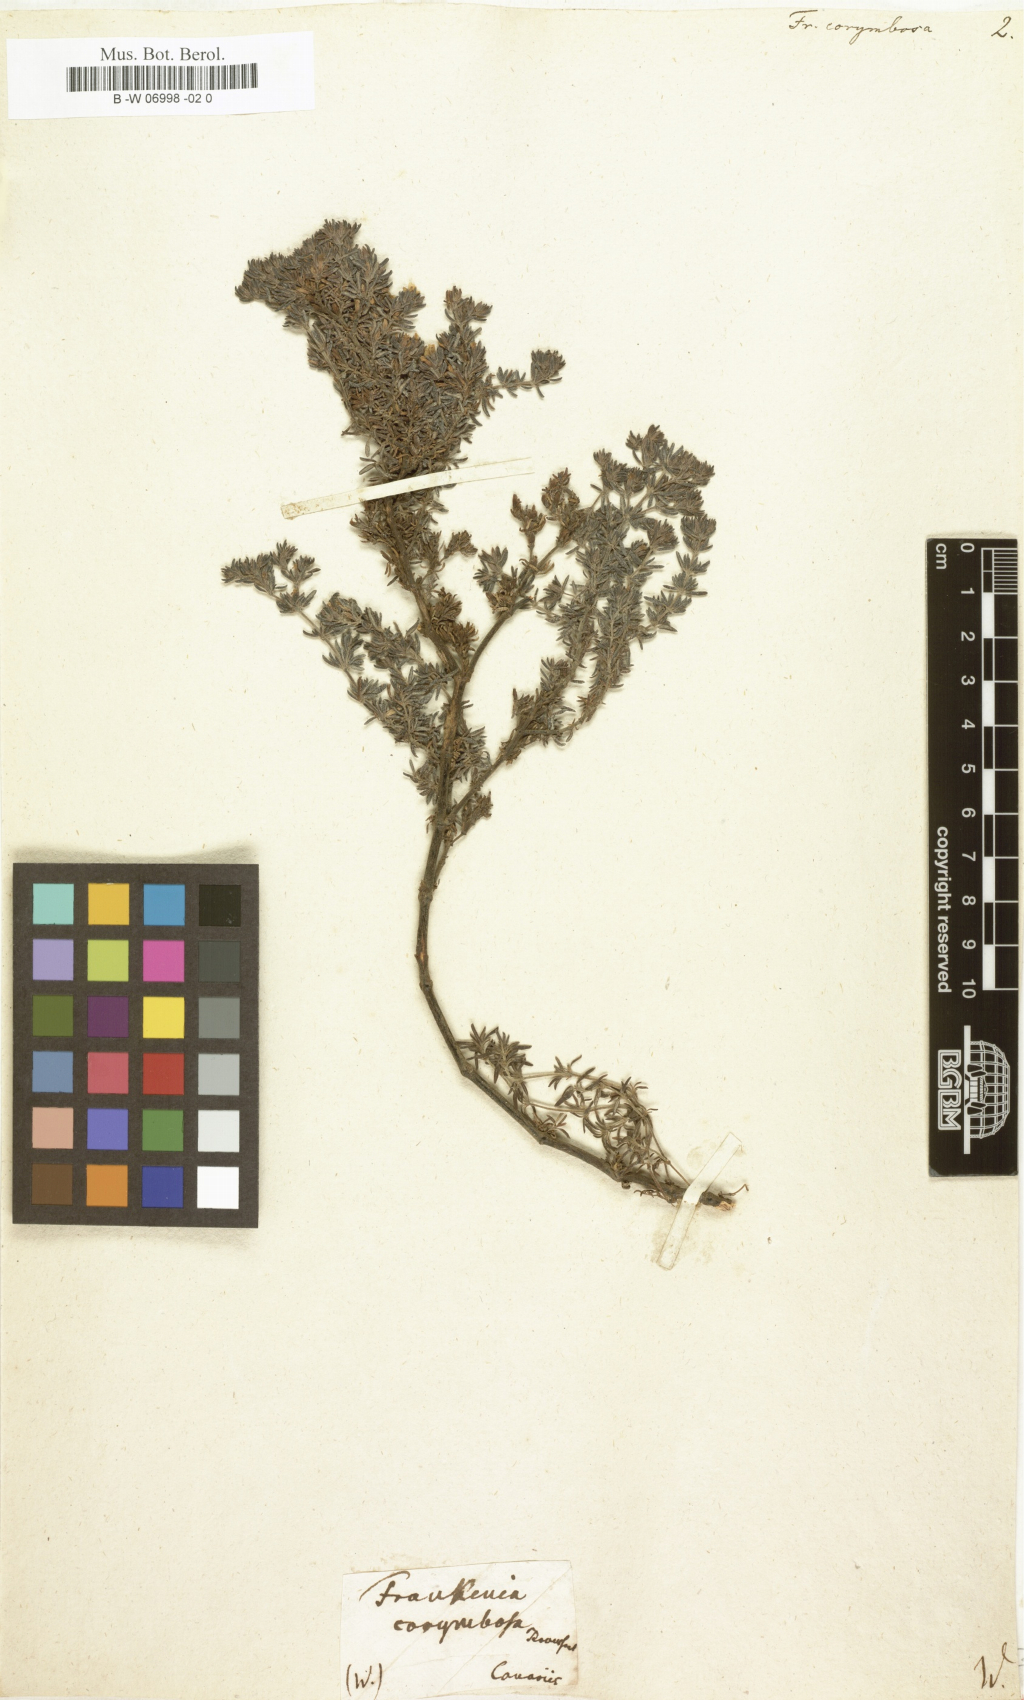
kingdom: Plantae
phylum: Tracheophyta
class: Magnoliopsida
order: Caryophyllales
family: Frankeniaceae
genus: Frankenia
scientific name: Frankenia corymbosa
